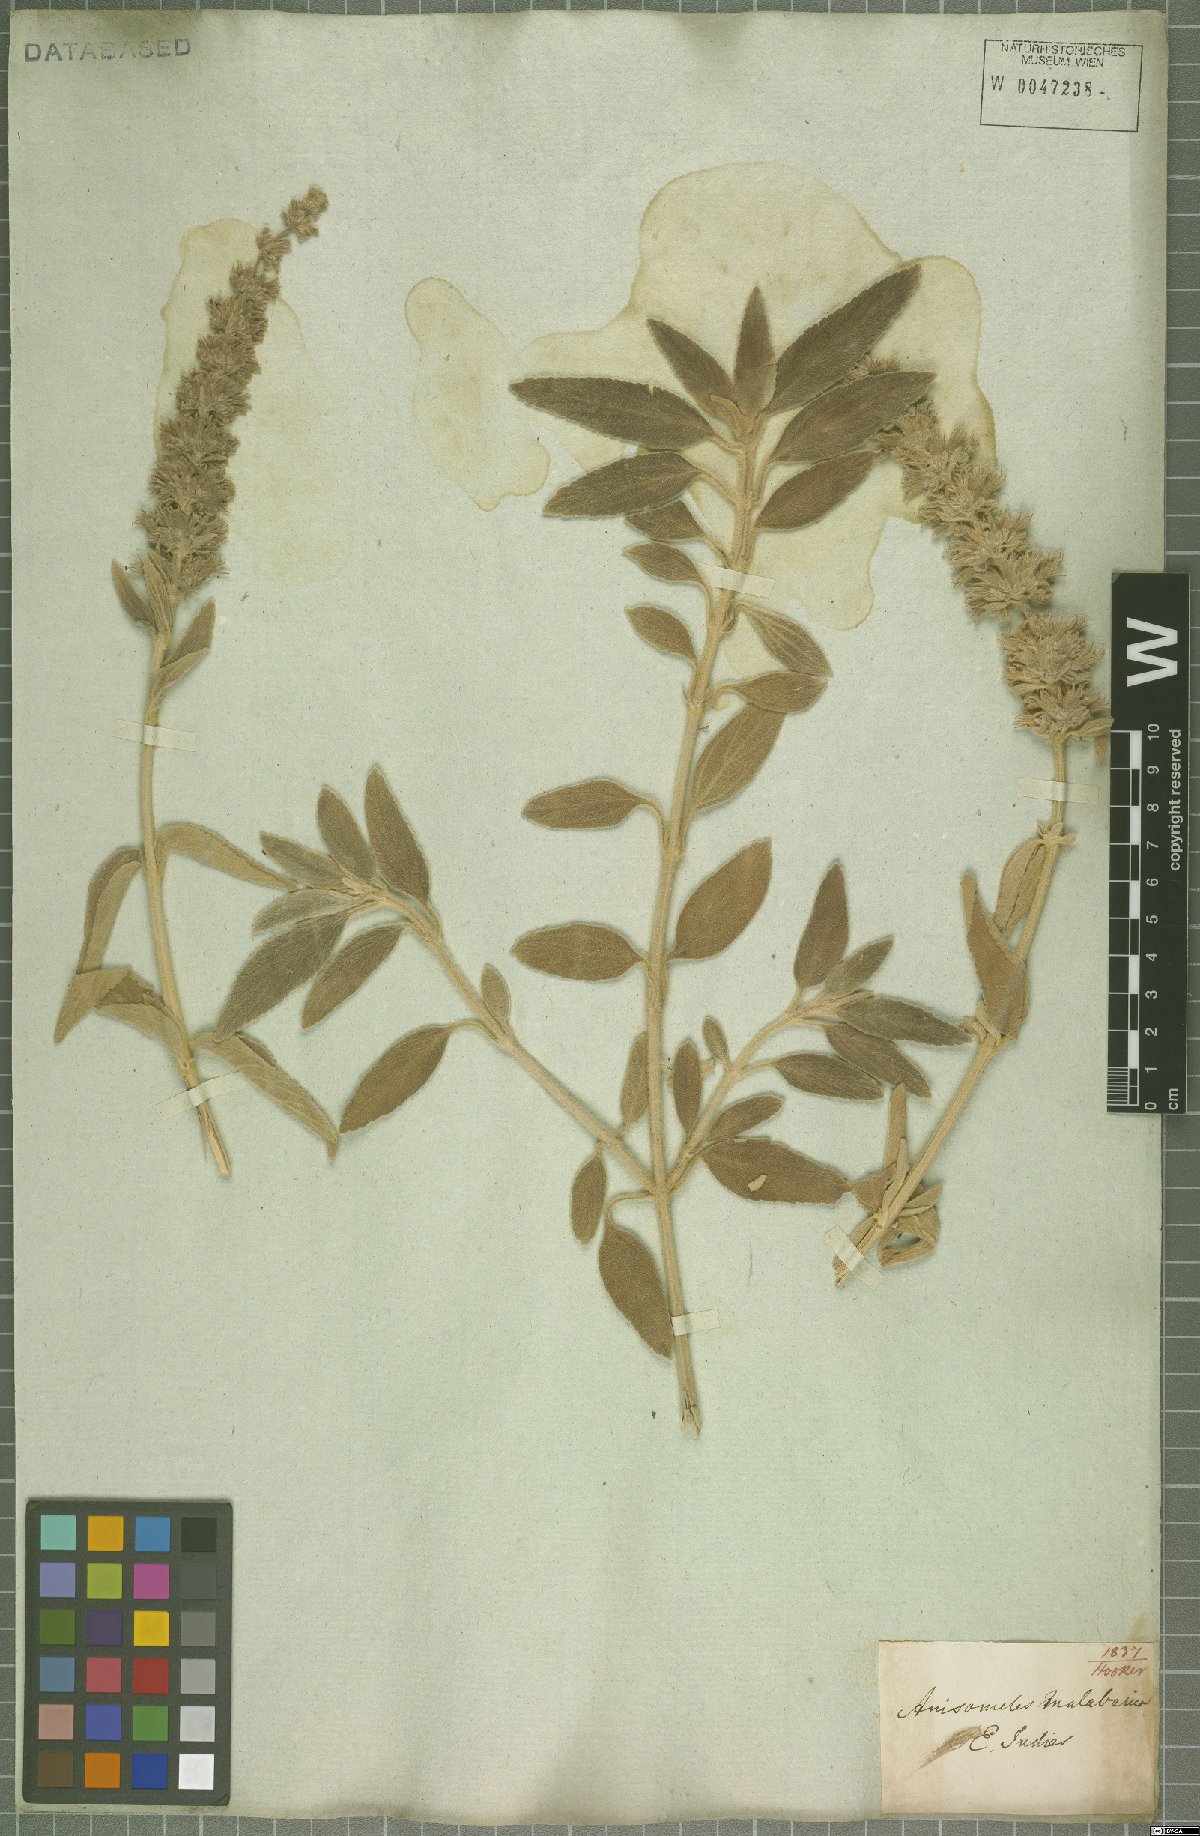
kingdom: Plantae
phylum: Tracheophyta
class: Magnoliopsida
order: Lamiales
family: Lamiaceae
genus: Anisomeles
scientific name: Anisomeles malabarica
